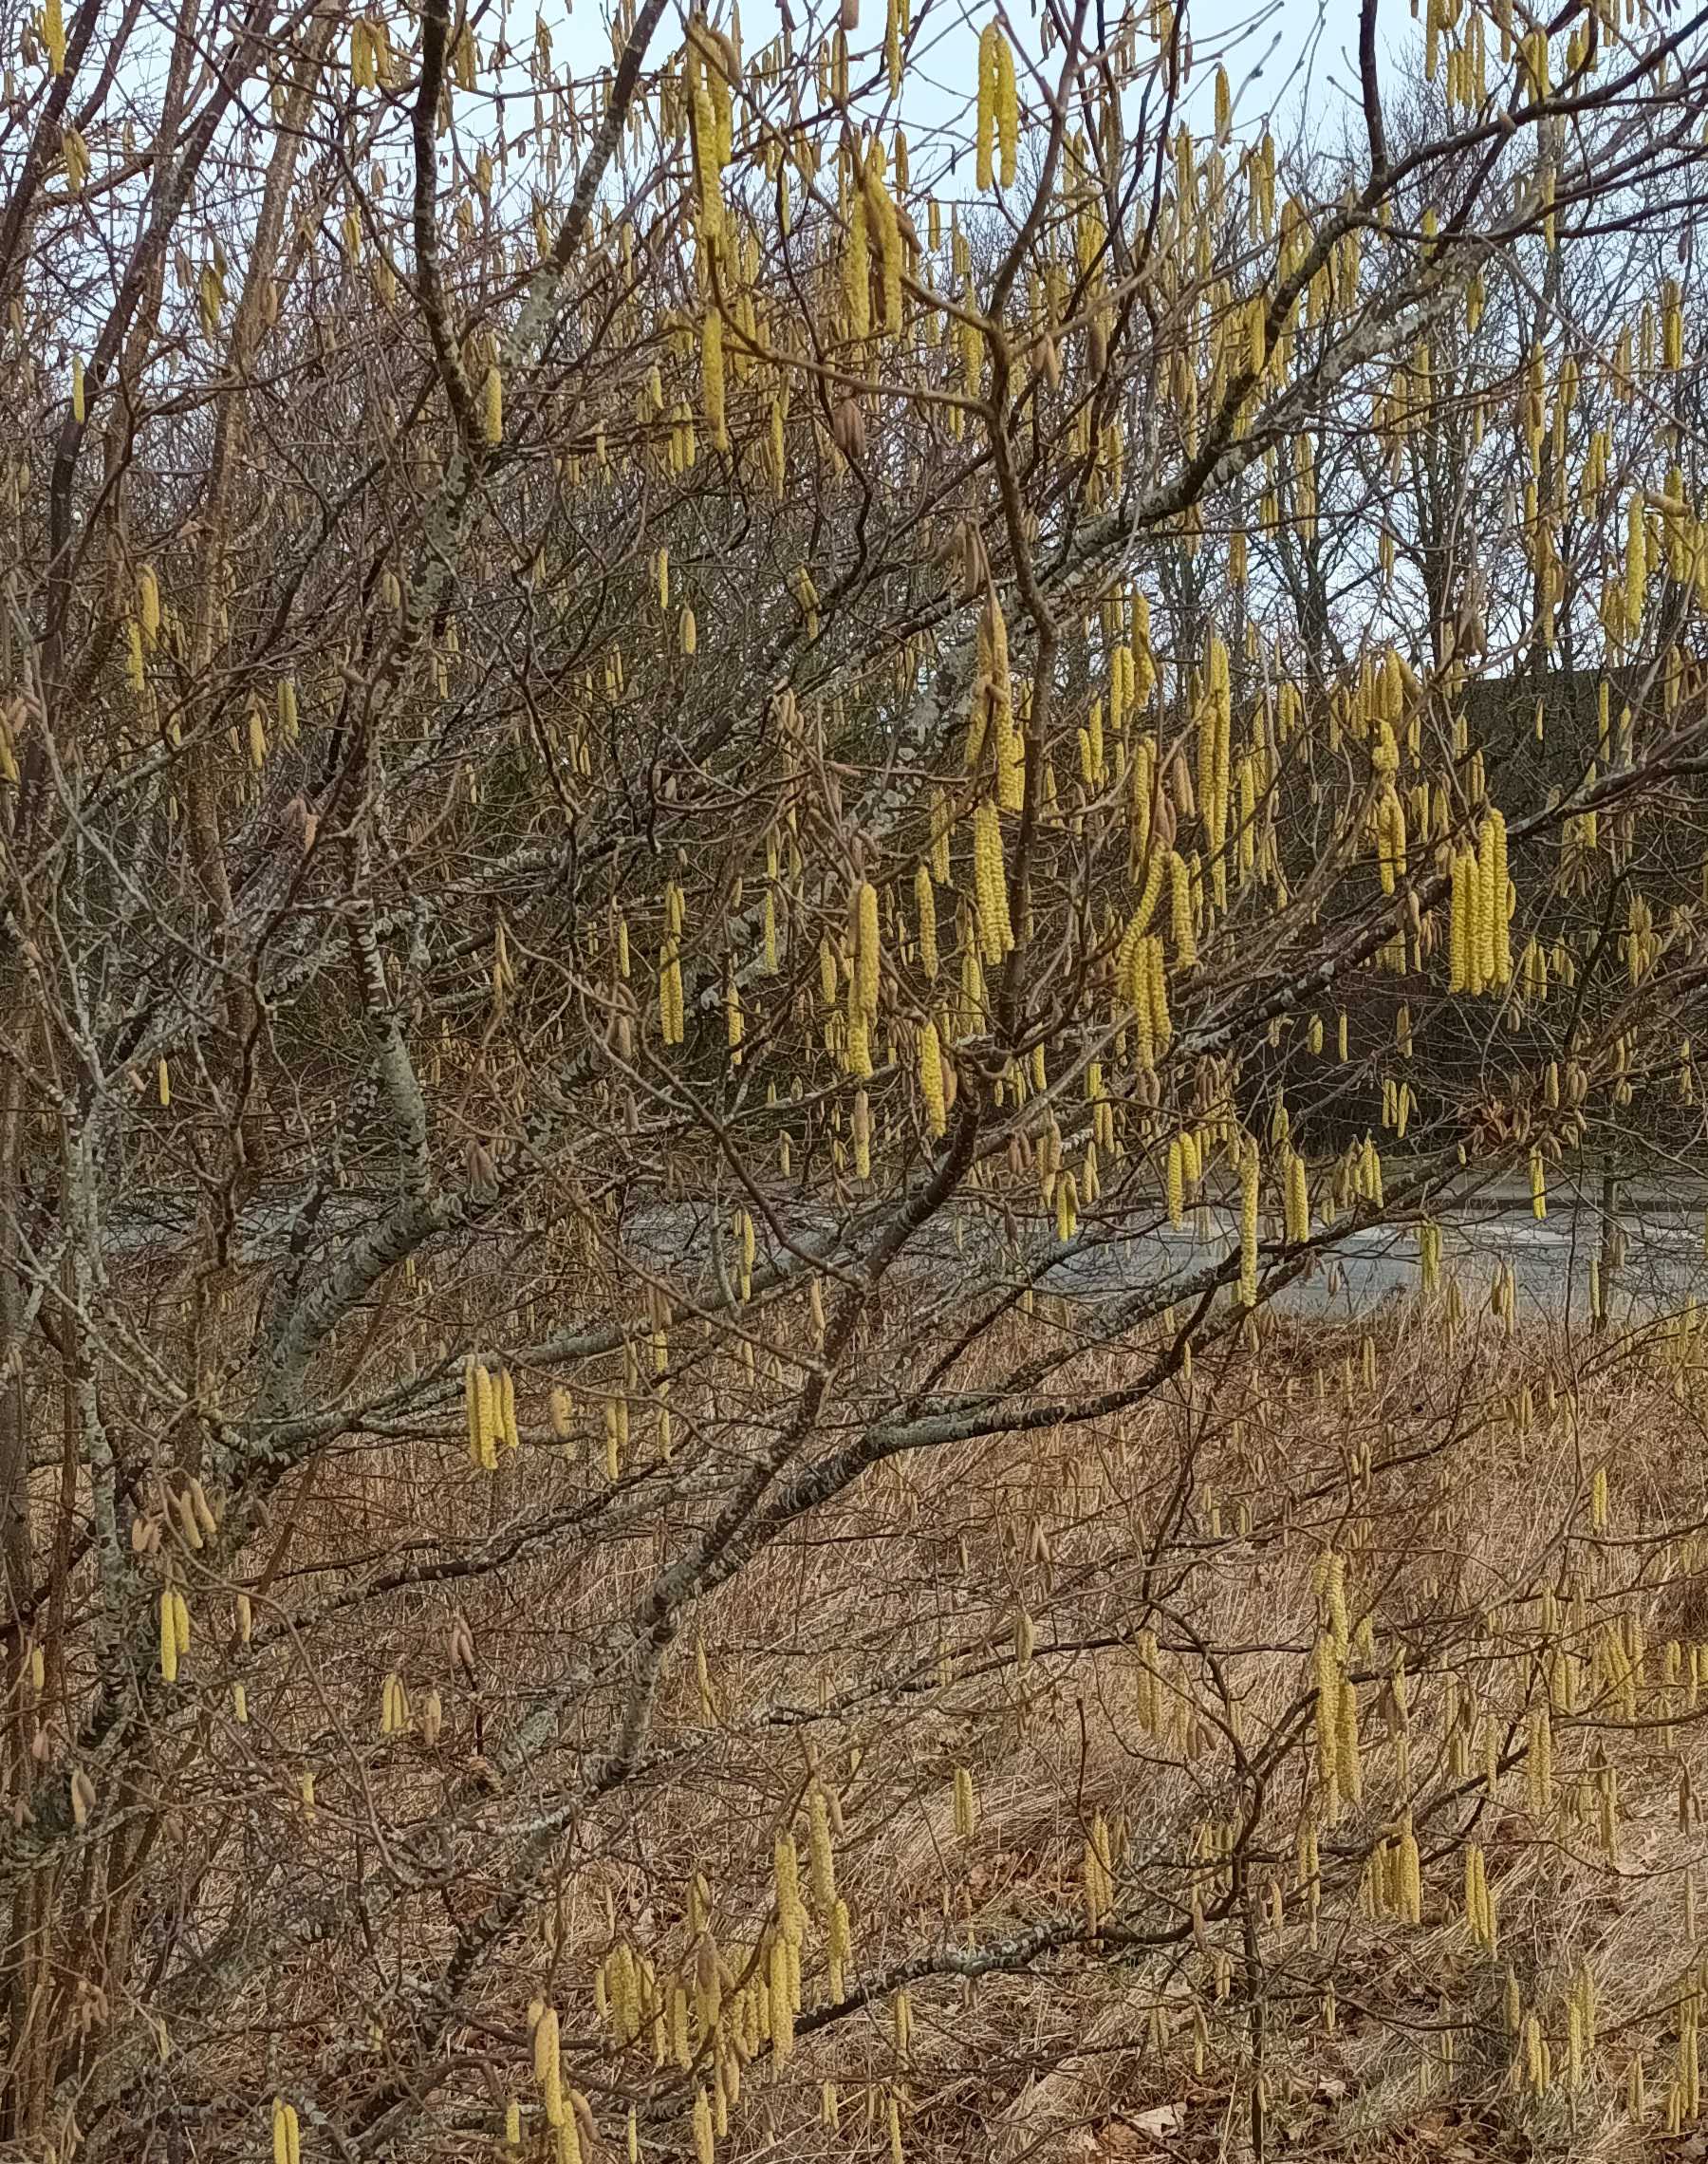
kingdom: Plantae
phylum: Tracheophyta
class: Magnoliopsida
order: Fagales
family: Betulaceae
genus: Corylus
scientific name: Corylus avellana
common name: Hassel
